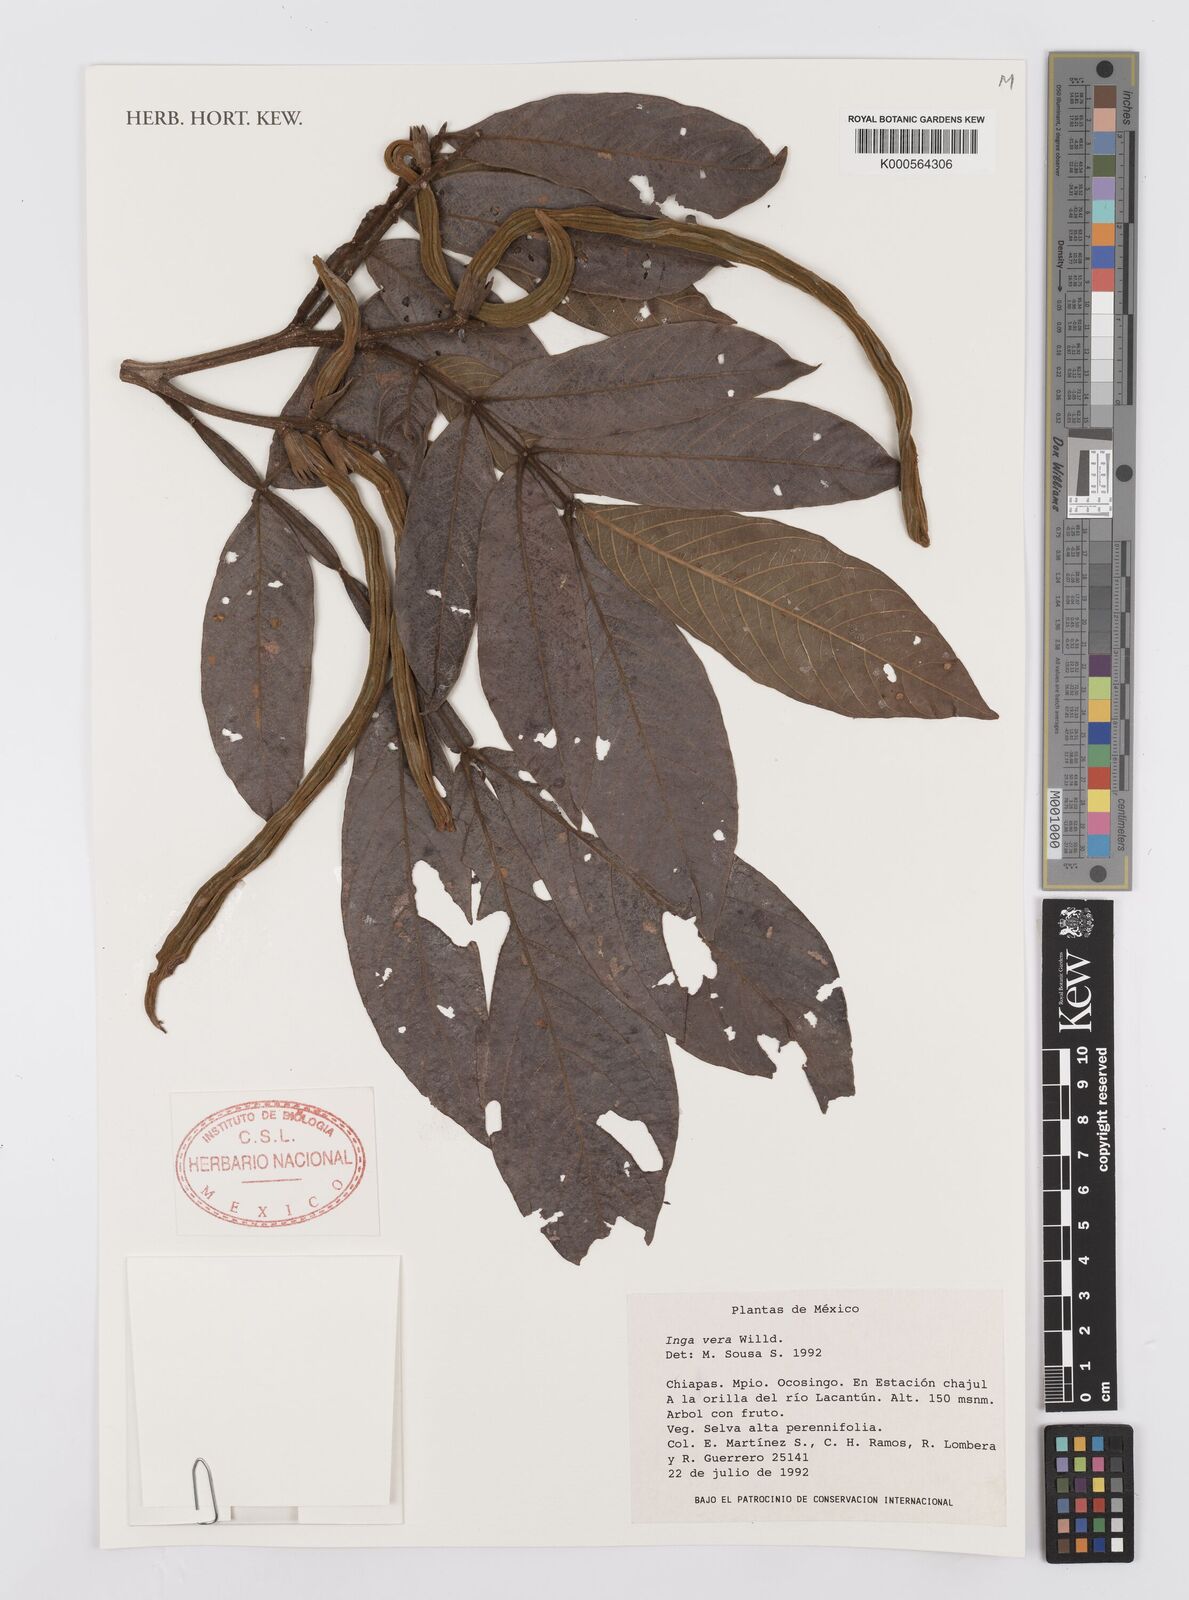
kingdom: Plantae
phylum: Tracheophyta
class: Magnoliopsida
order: Fabales
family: Fabaceae
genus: Inga
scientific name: Inga vera
